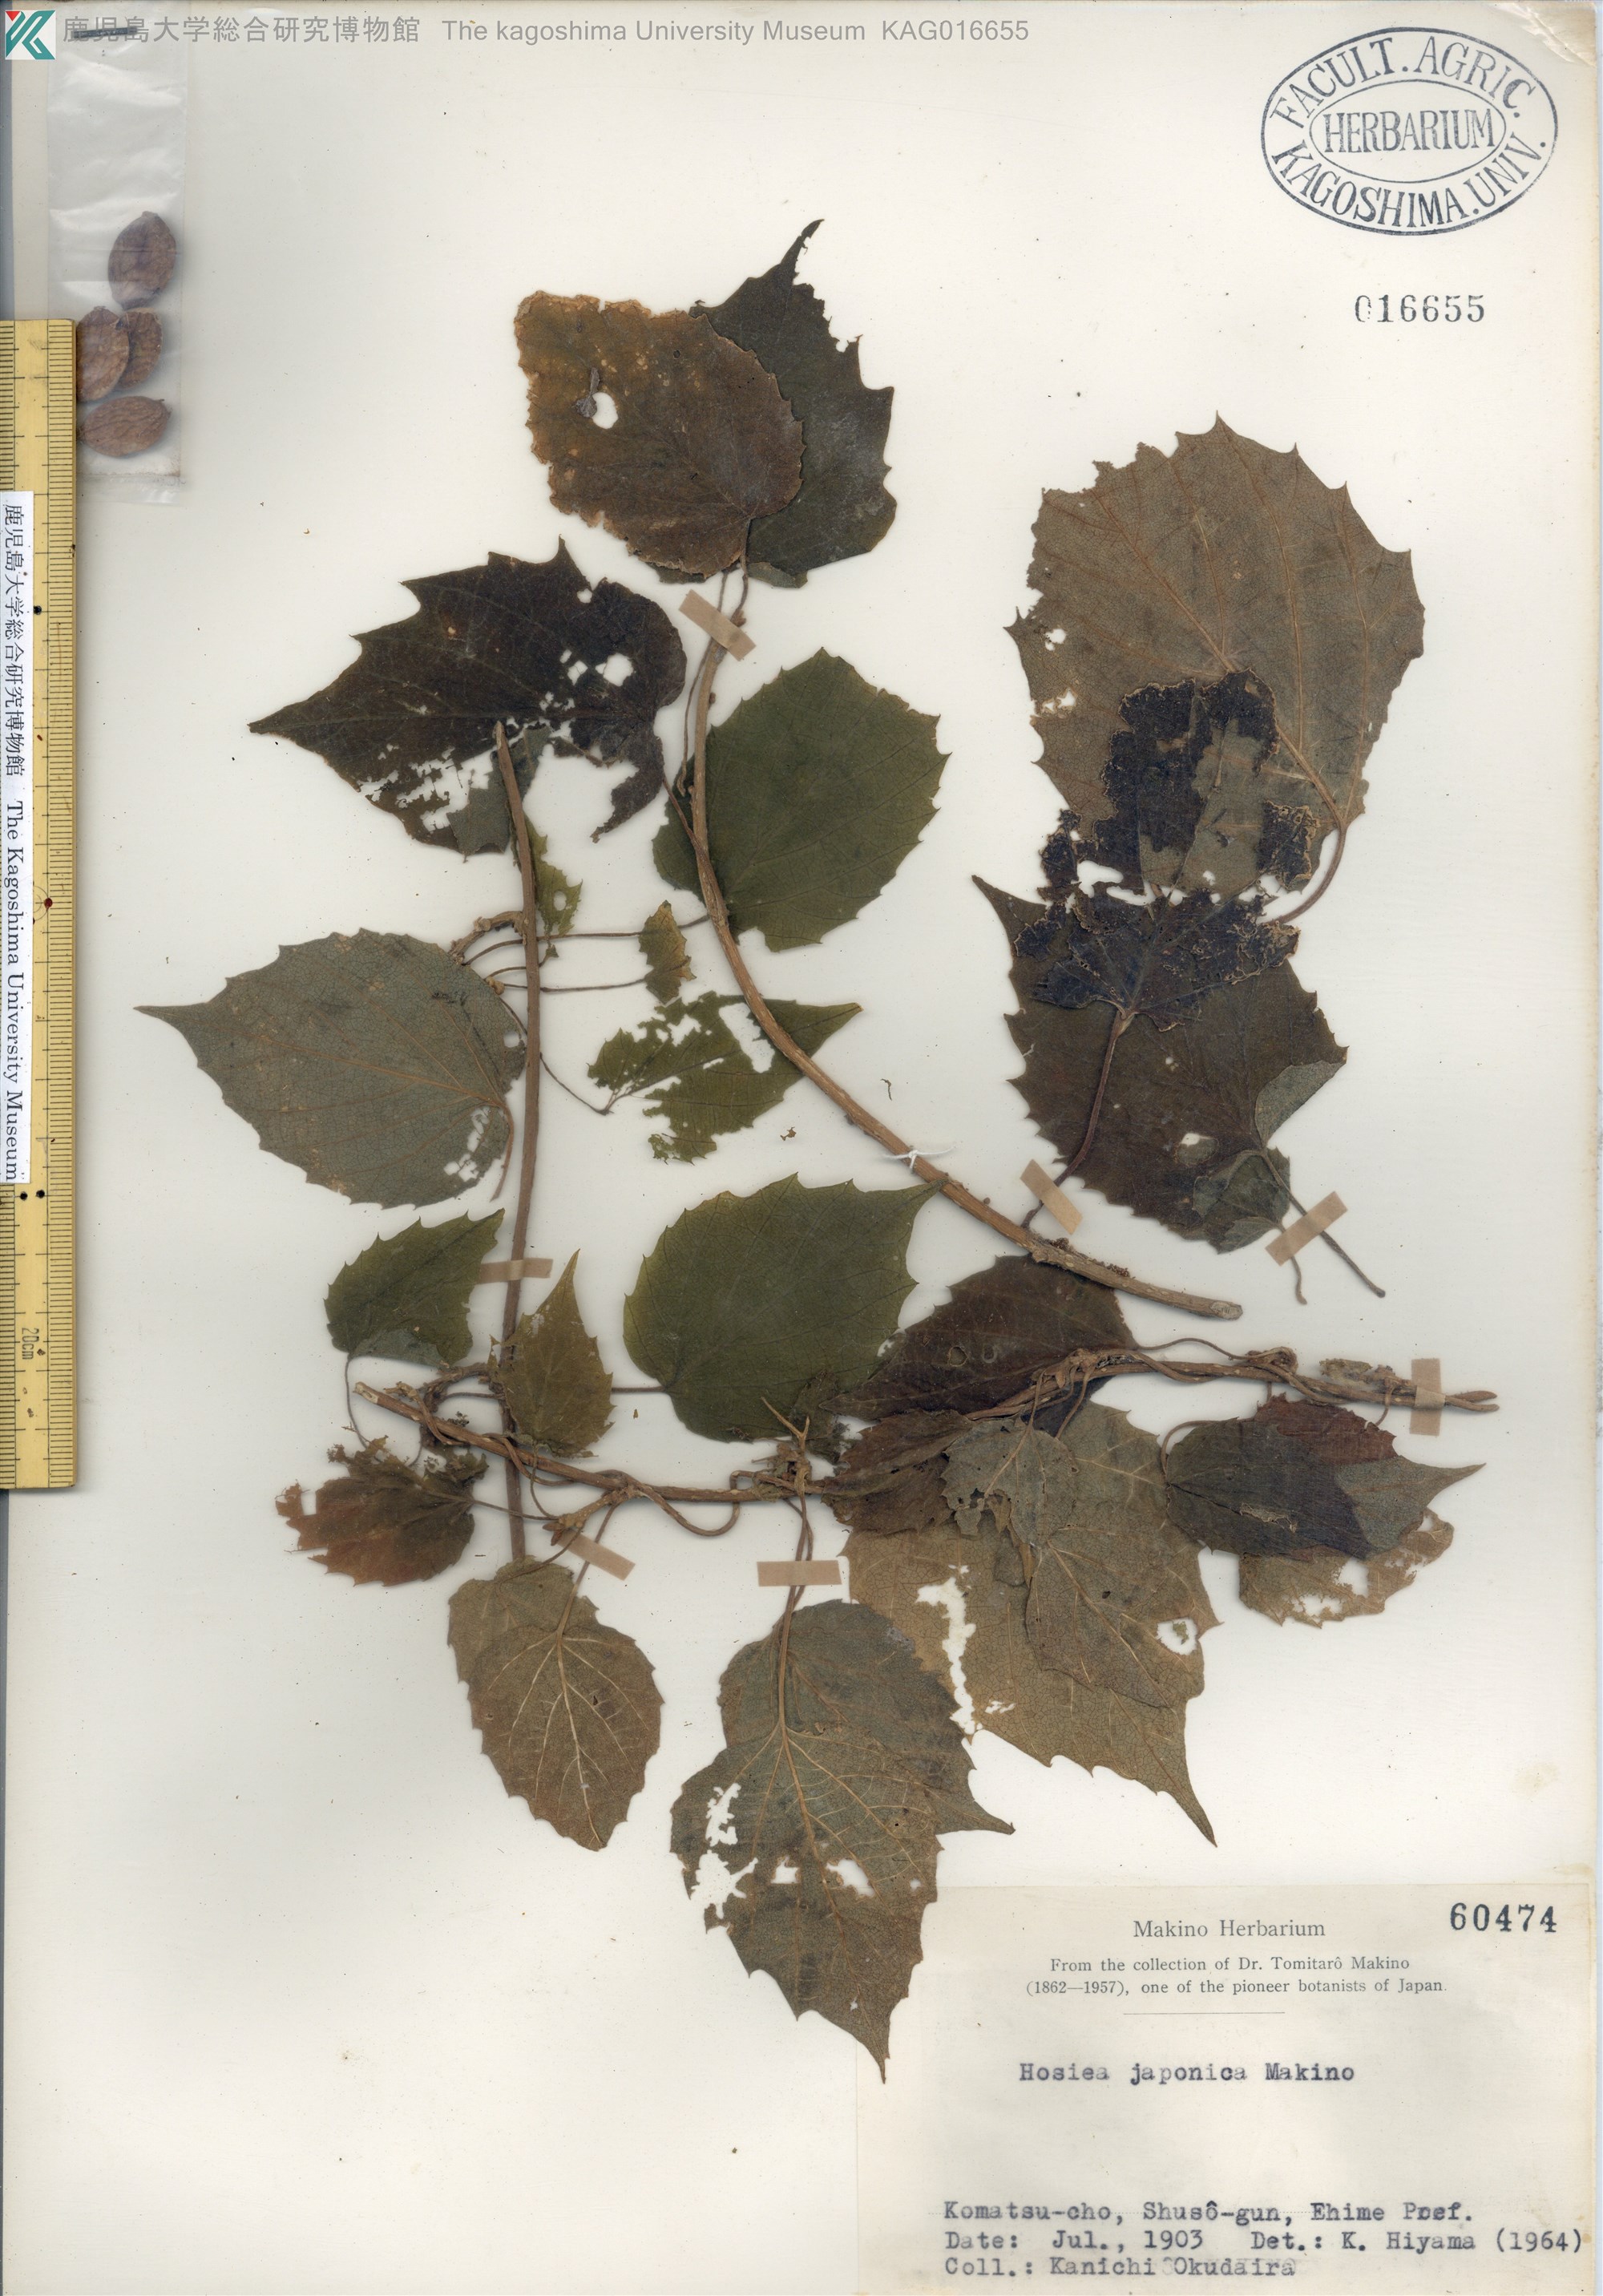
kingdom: Plantae
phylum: Tracheophyta
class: Magnoliopsida
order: Icacinales
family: Icacinaceae
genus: Hosiea
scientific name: Hosiea japonica
